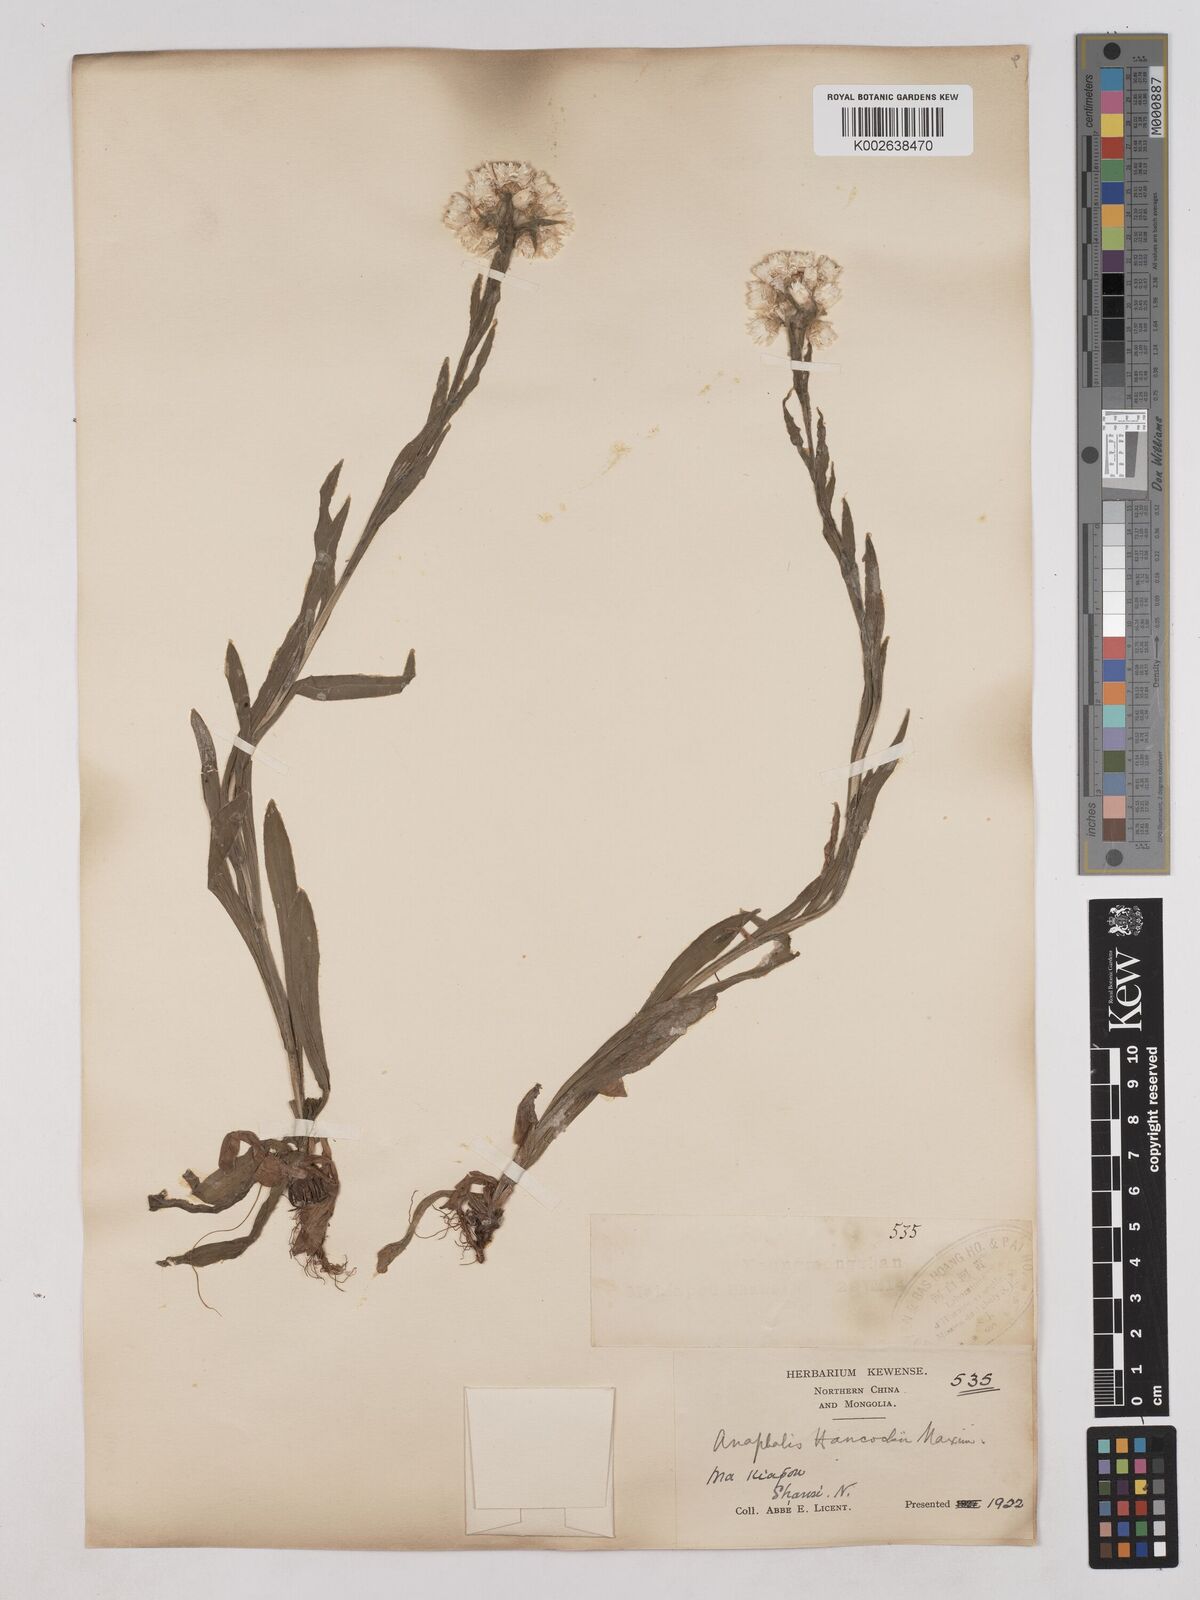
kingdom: Plantae
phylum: Tracheophyta
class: Magnoliopsida
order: Asterales
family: Asteraceae
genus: Anaphalis
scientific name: Anaphalis hancockii
